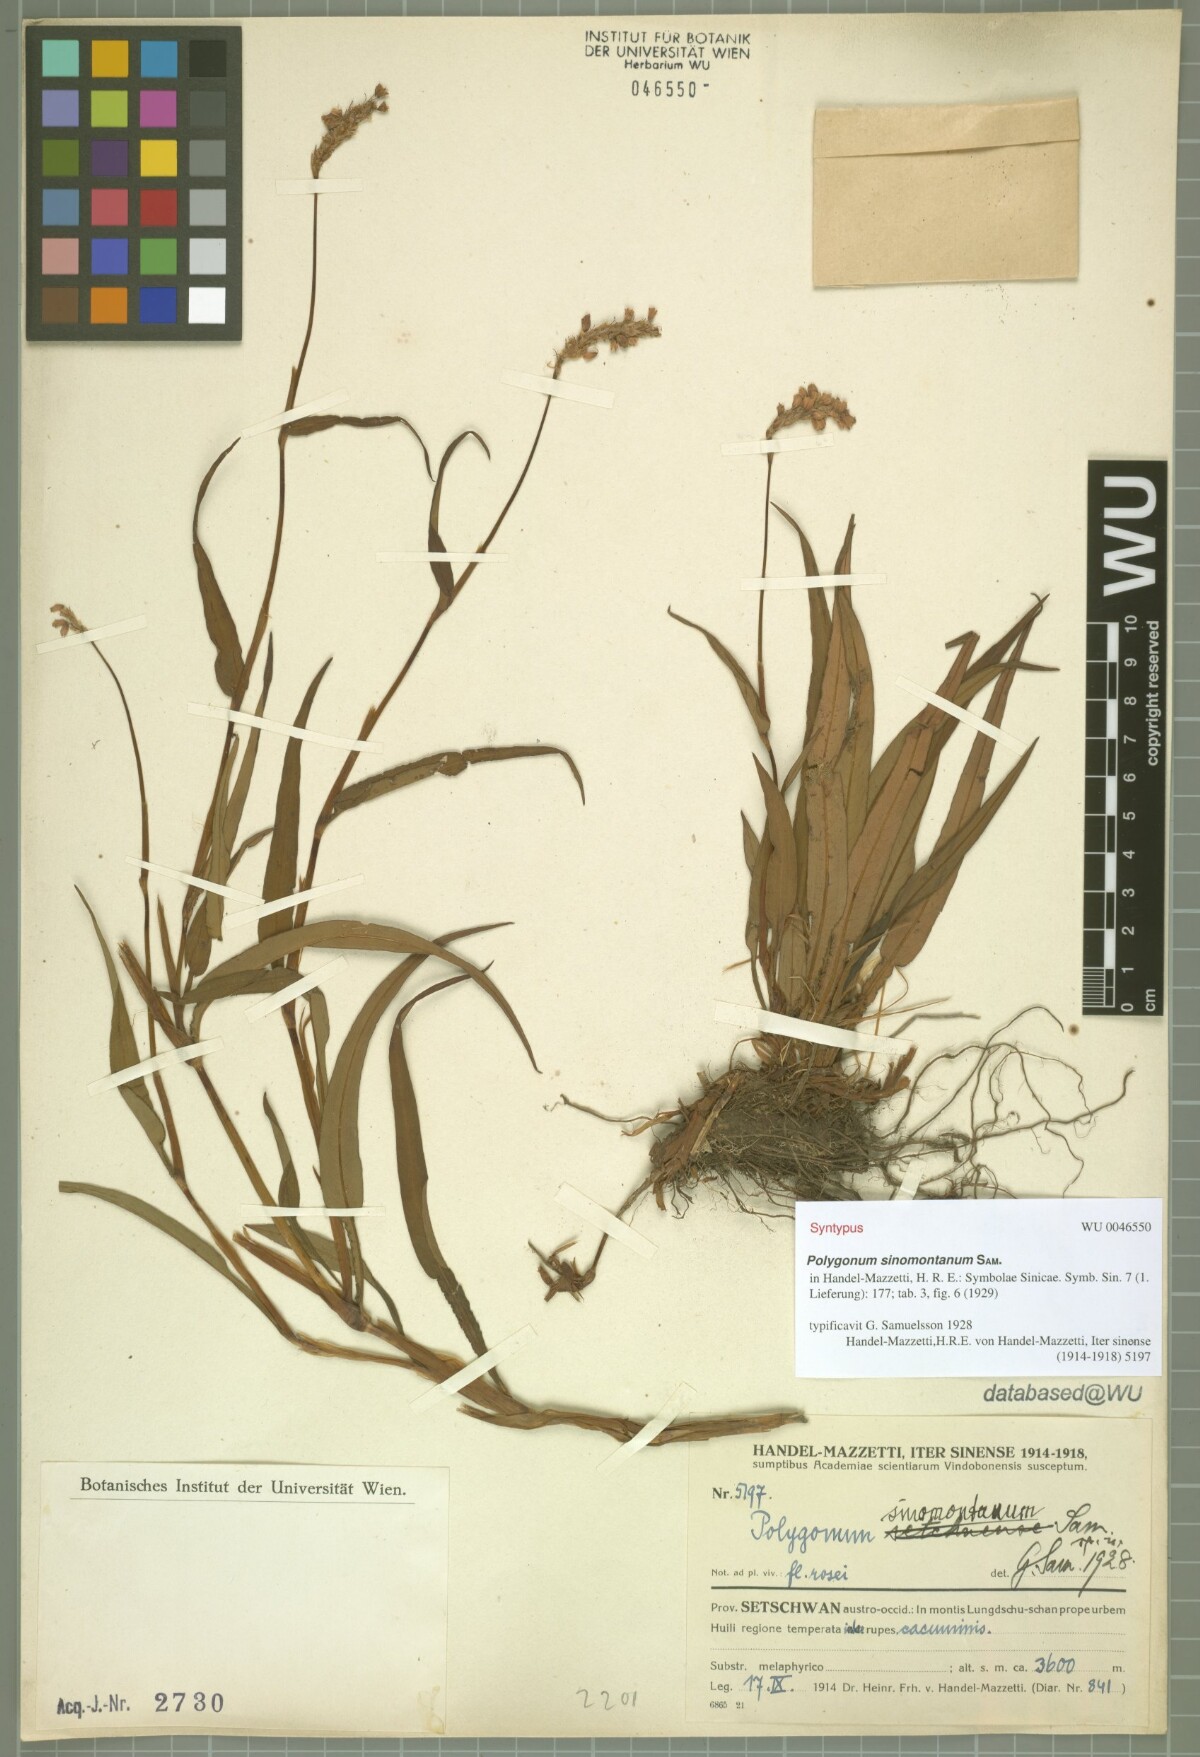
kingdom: Plantae
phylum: Tracheophyta
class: Magnoliopsida
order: Caryophyllales
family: Polygonaceae
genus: Bistorta
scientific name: Bistorta sinomontana
